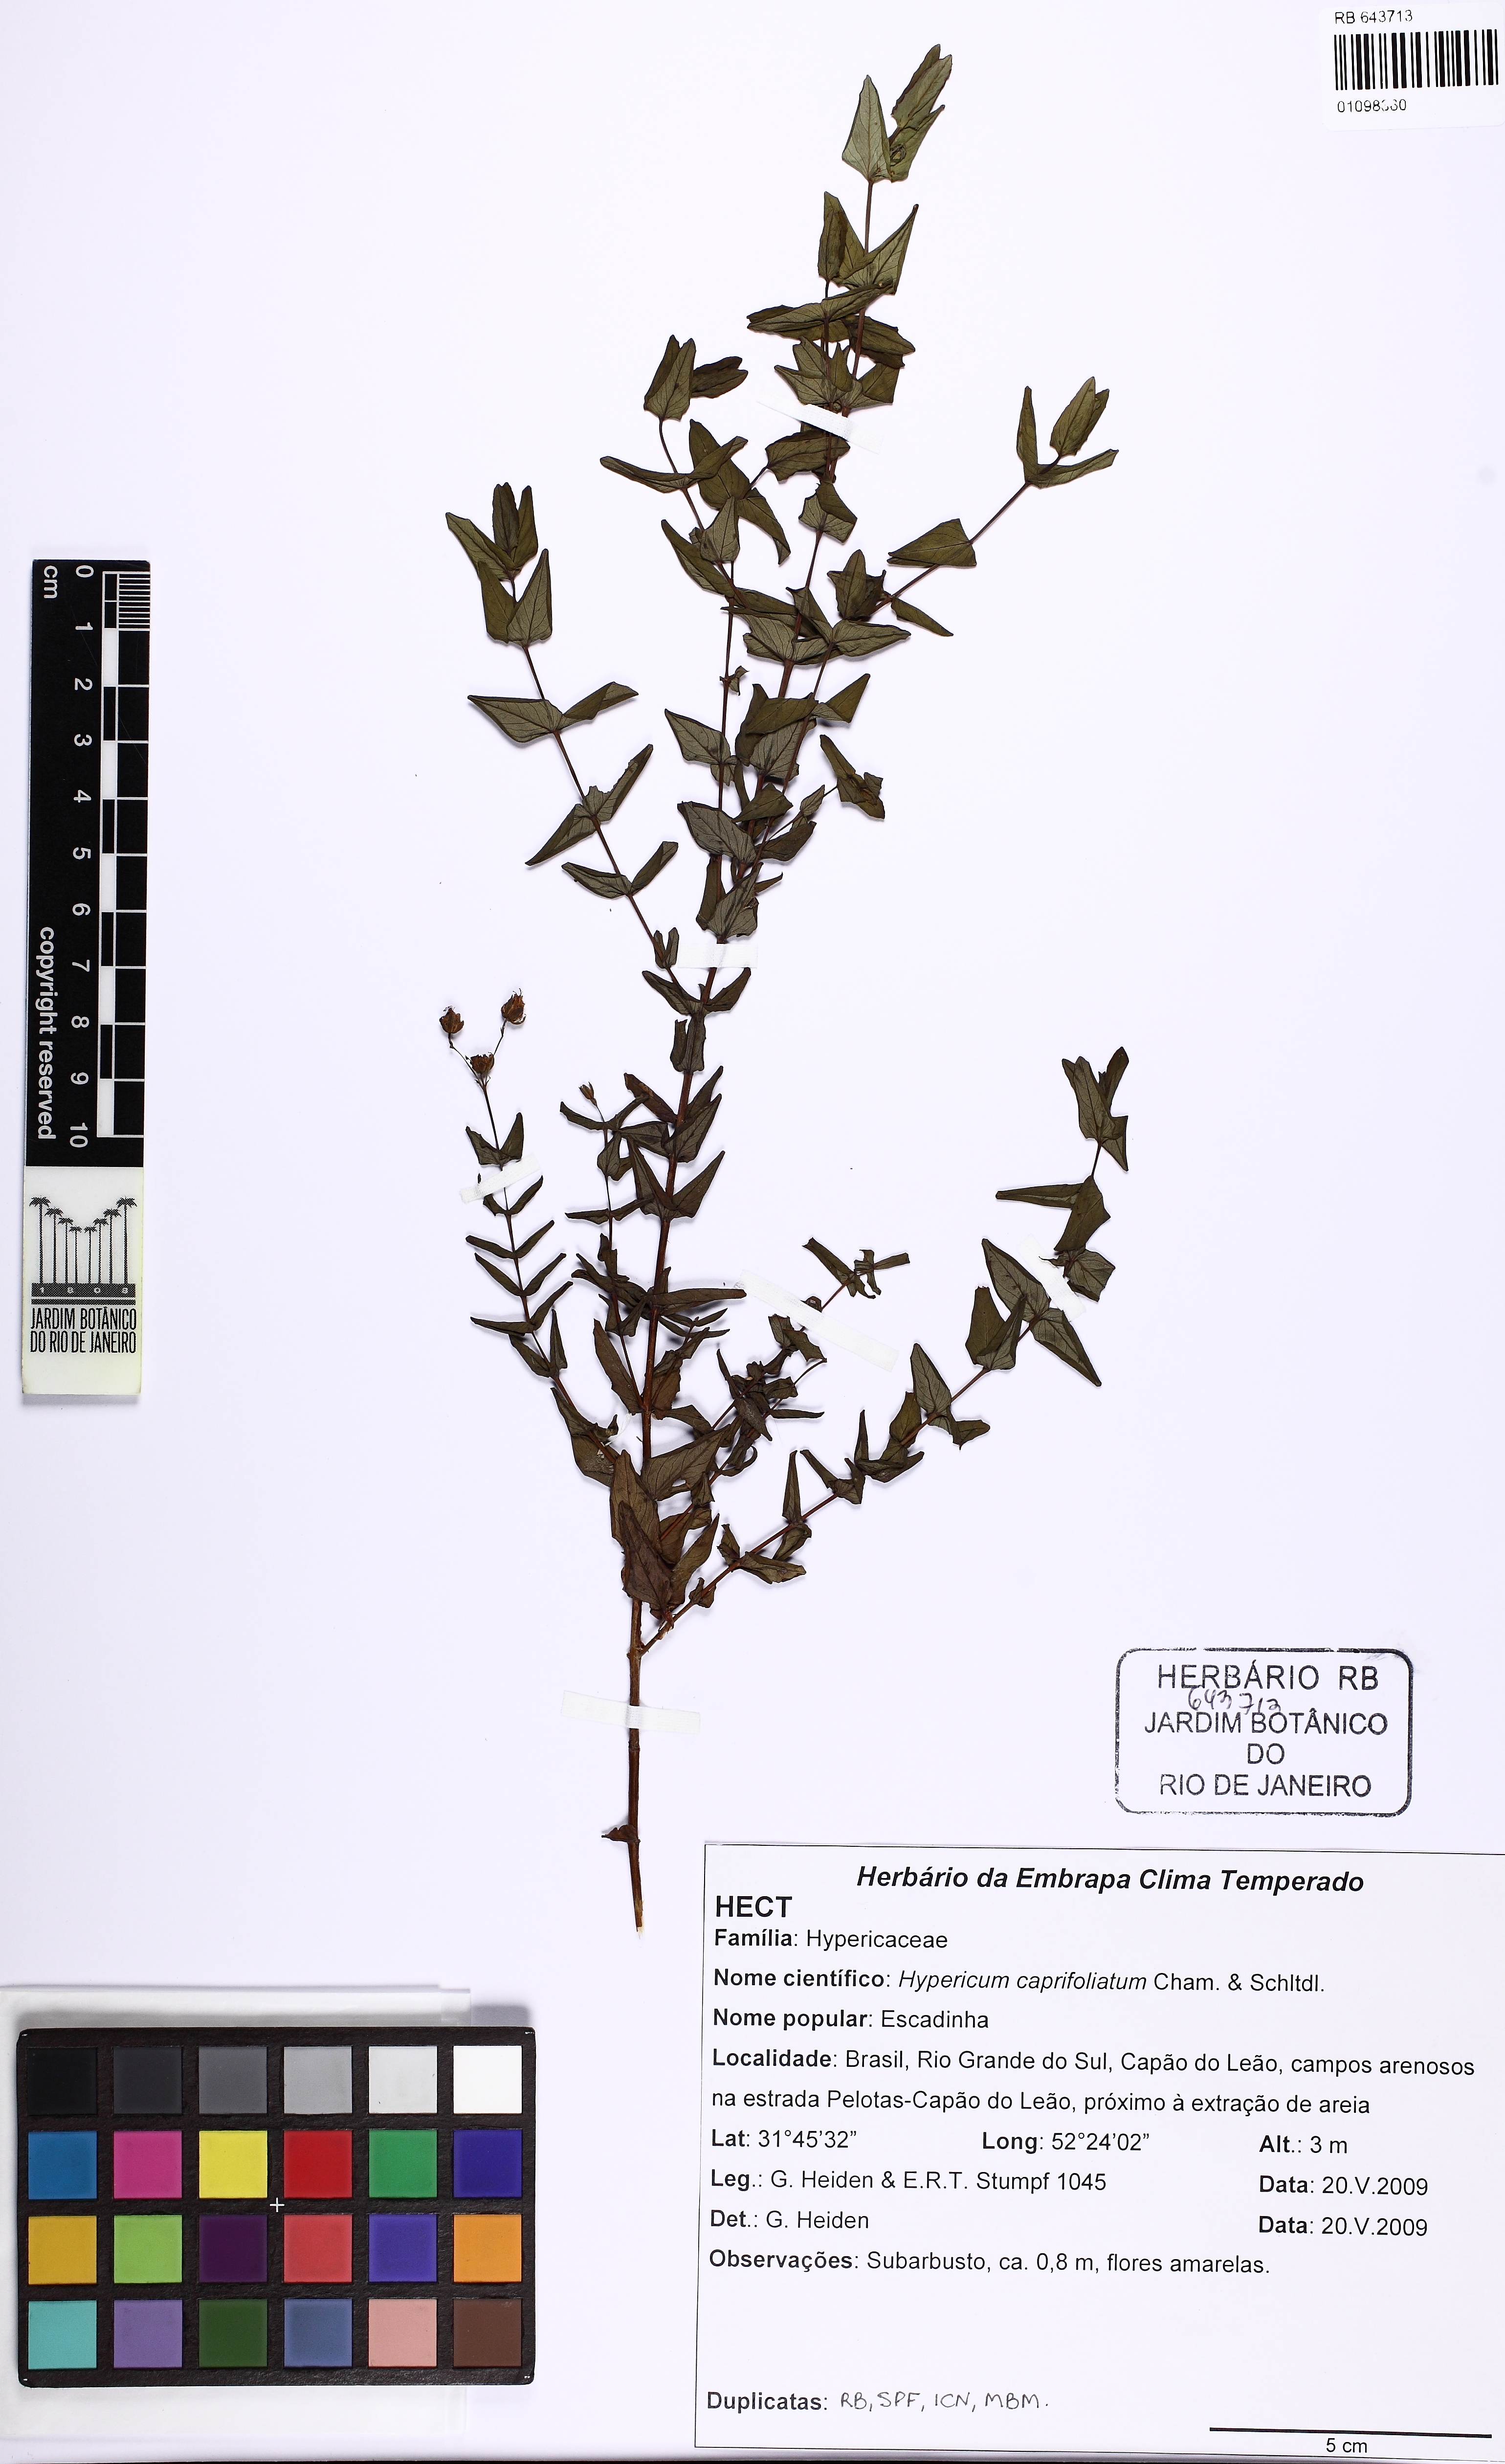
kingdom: Plantae
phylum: Tracheophyta
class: Magnoliopsida
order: Malpighiales
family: Hypericaceae
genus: Hypericum
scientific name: Hypericum caprifoliatum
